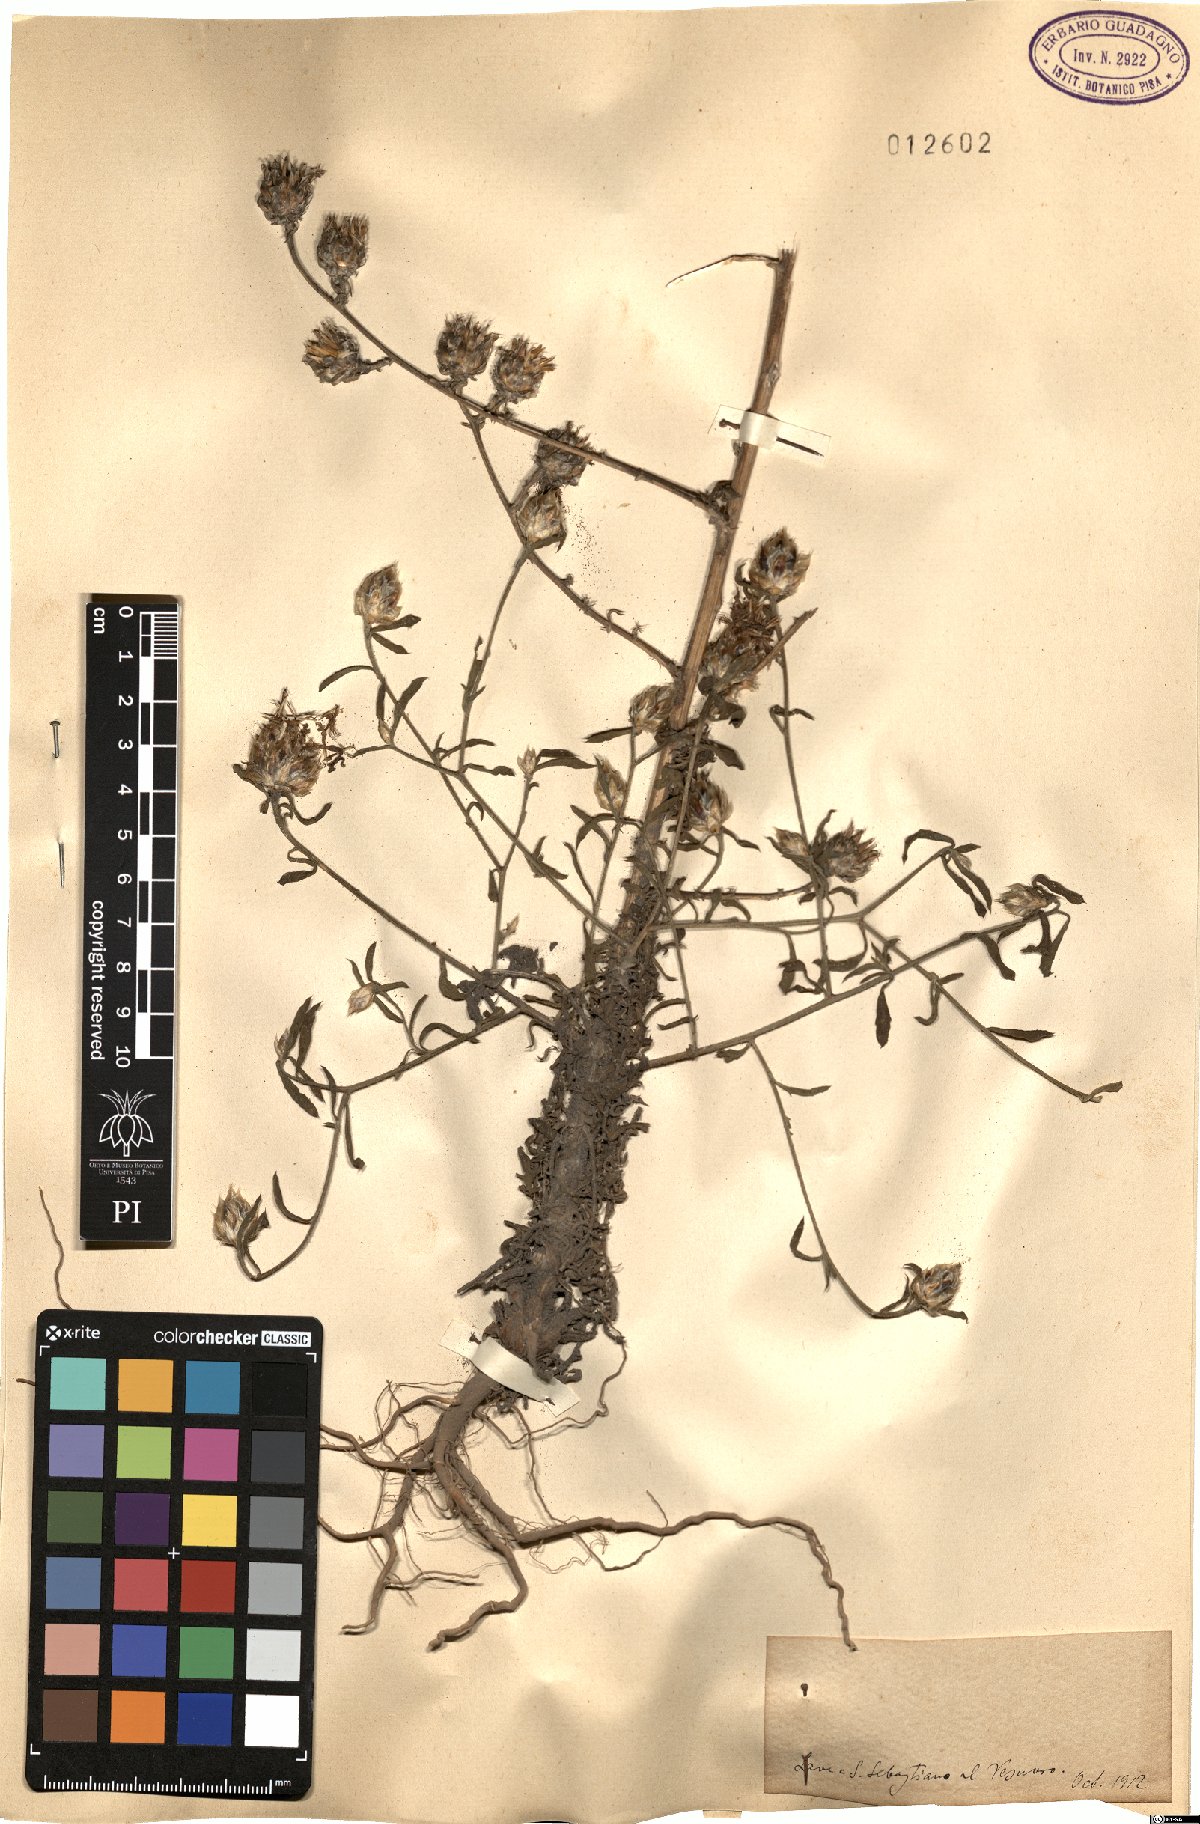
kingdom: Plantae
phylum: Tracheophyta
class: Magnoliopsida
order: Asterales
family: Asteraceae
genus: Centaurea
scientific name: Centaurea
